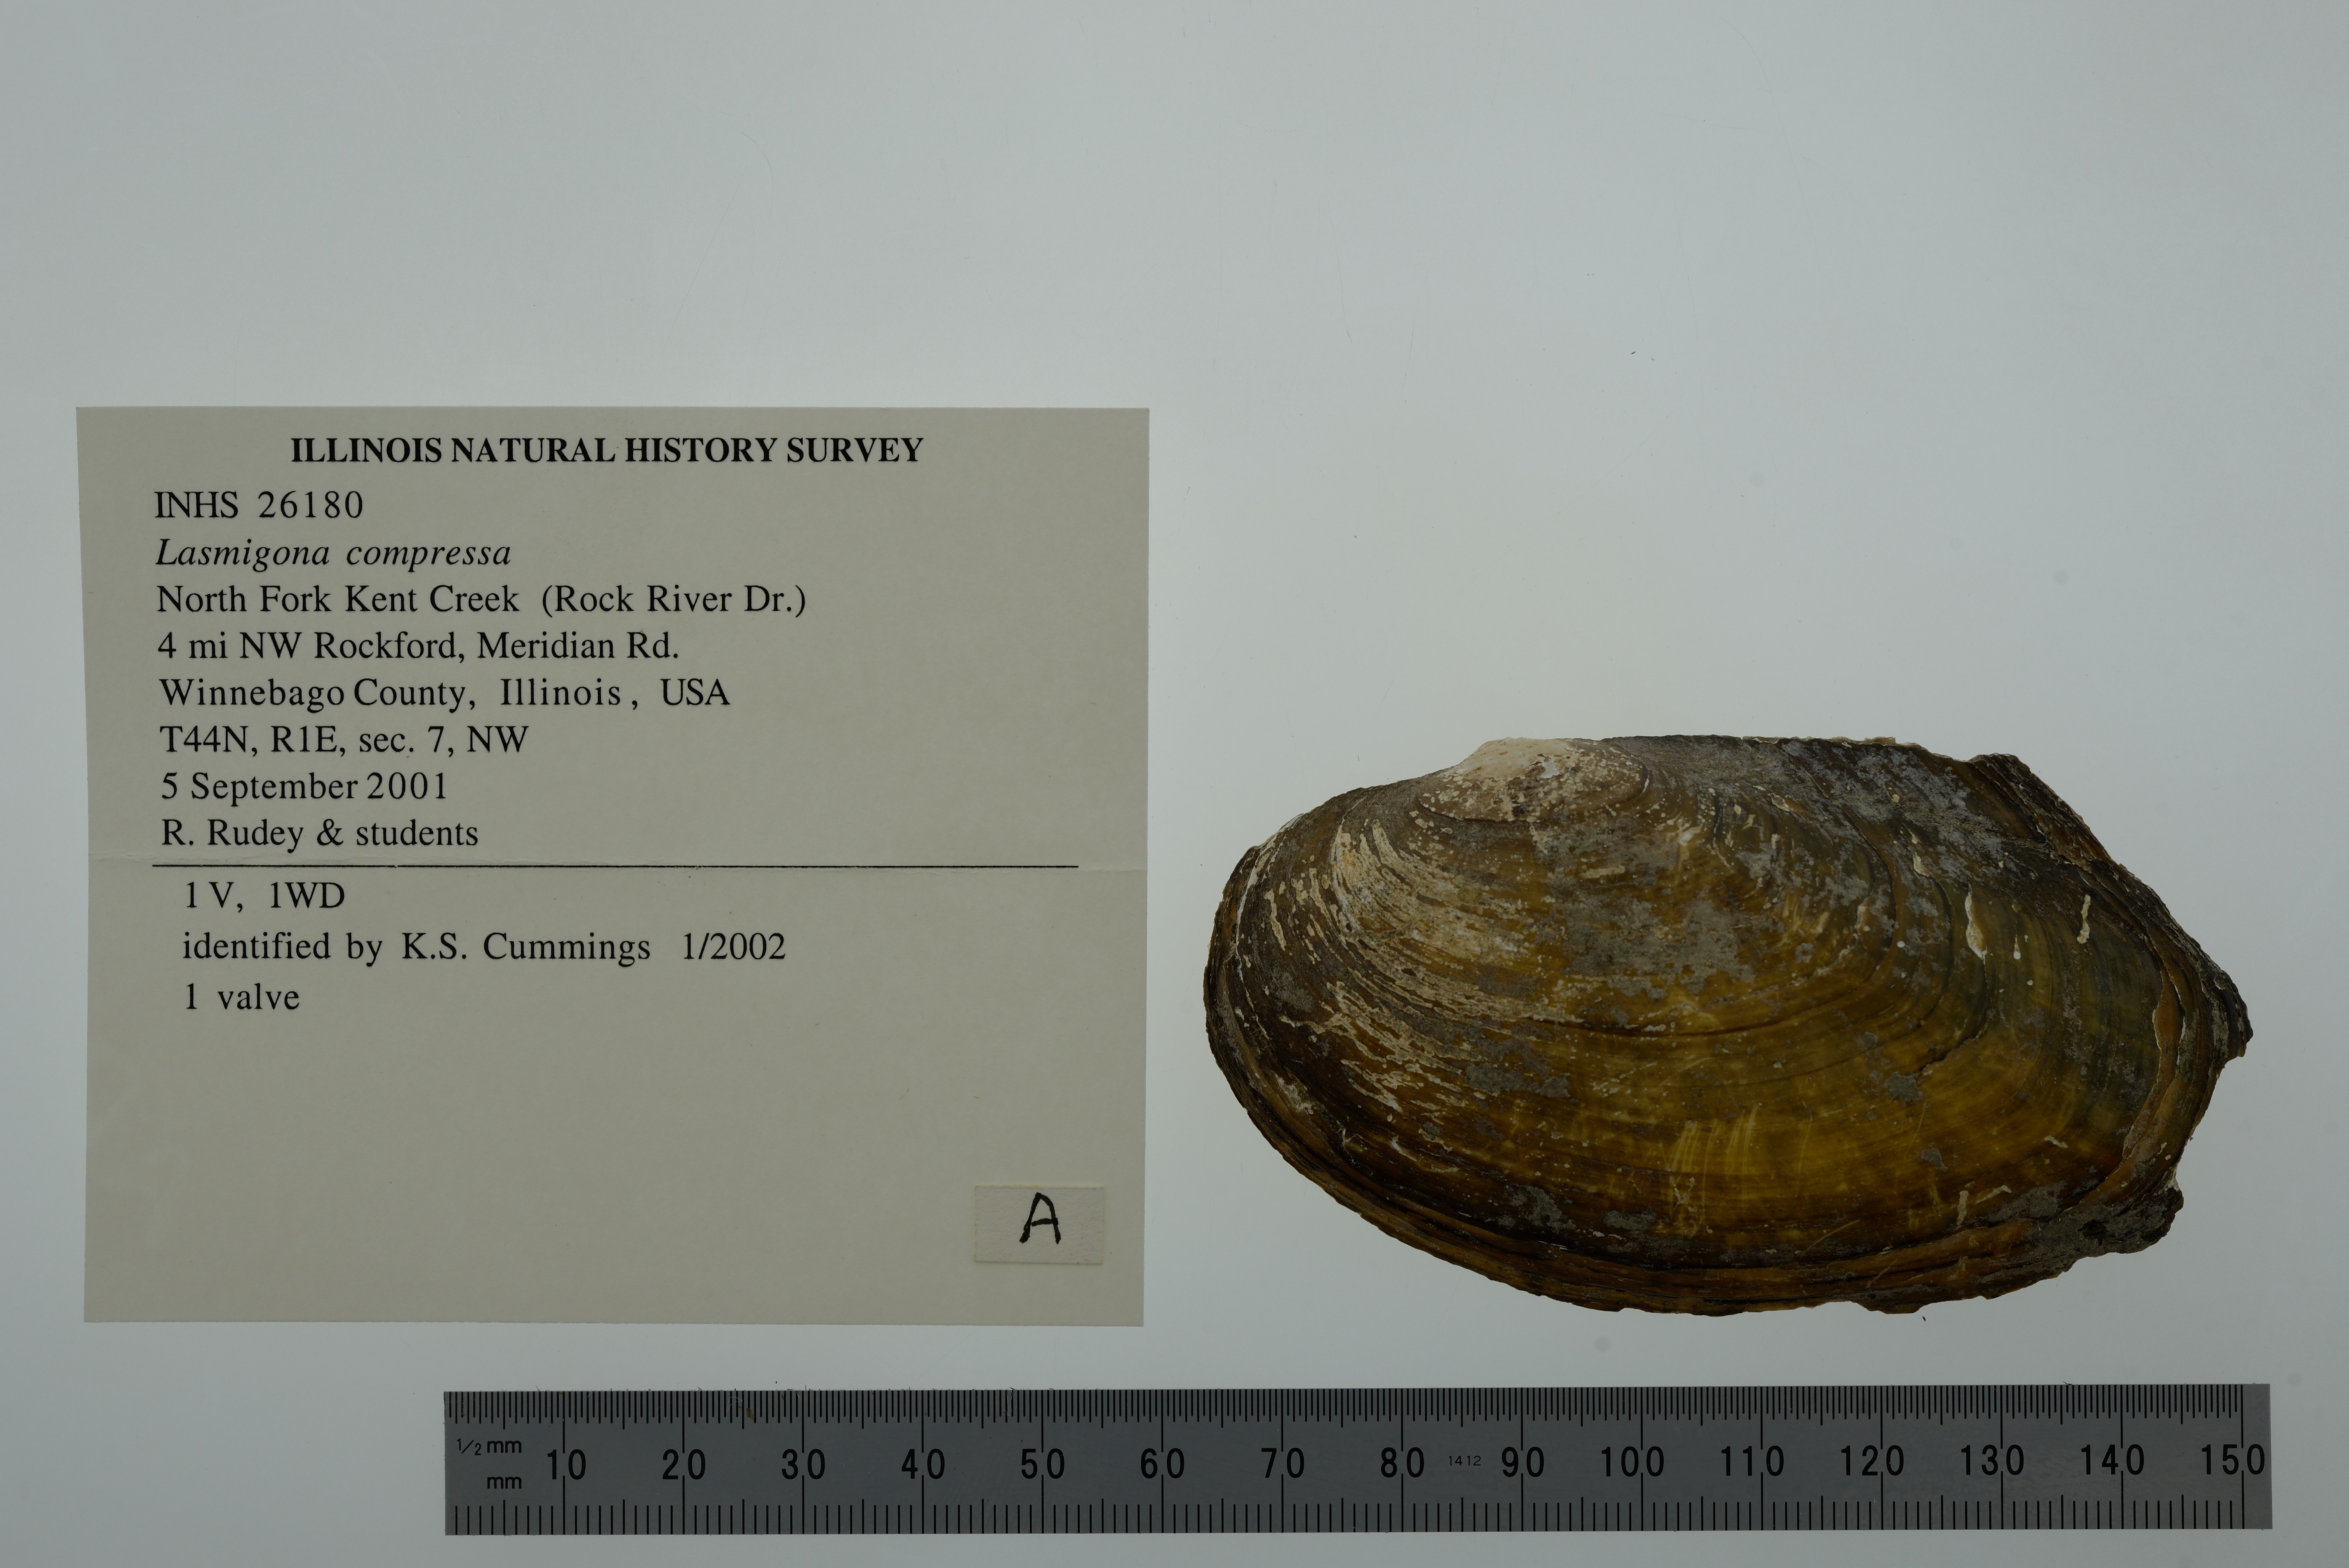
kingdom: Animalia
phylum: Mollusca
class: Bivalvia
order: Unionida
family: Unionidae
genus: Lasmigona
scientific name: Lasmigona compressa
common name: Creek heelsplitter
